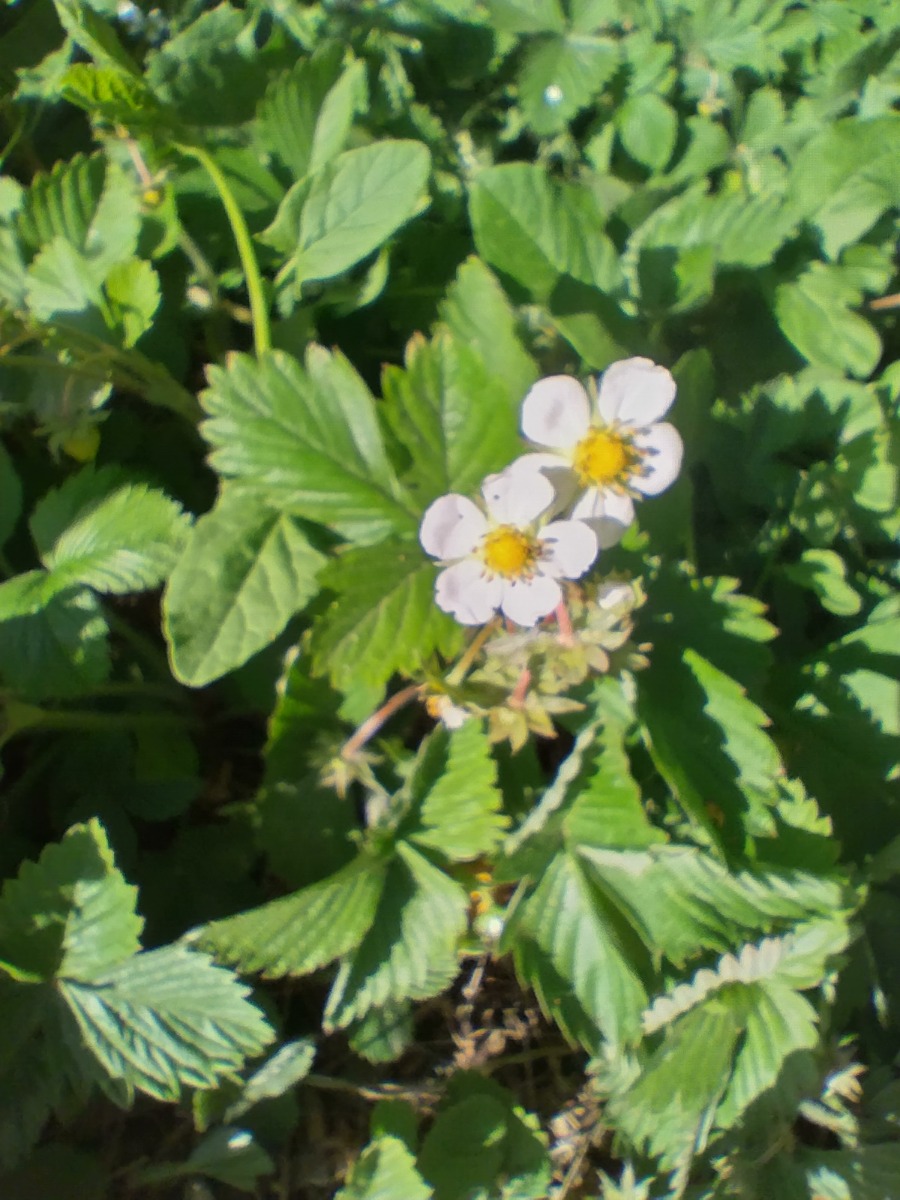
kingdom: Plantae
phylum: Tracheophyta
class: Magnoliopsida
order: Rosales
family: Rosaceae
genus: Fragaria
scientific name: Fragaria vesca
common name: Skov-jordbær
